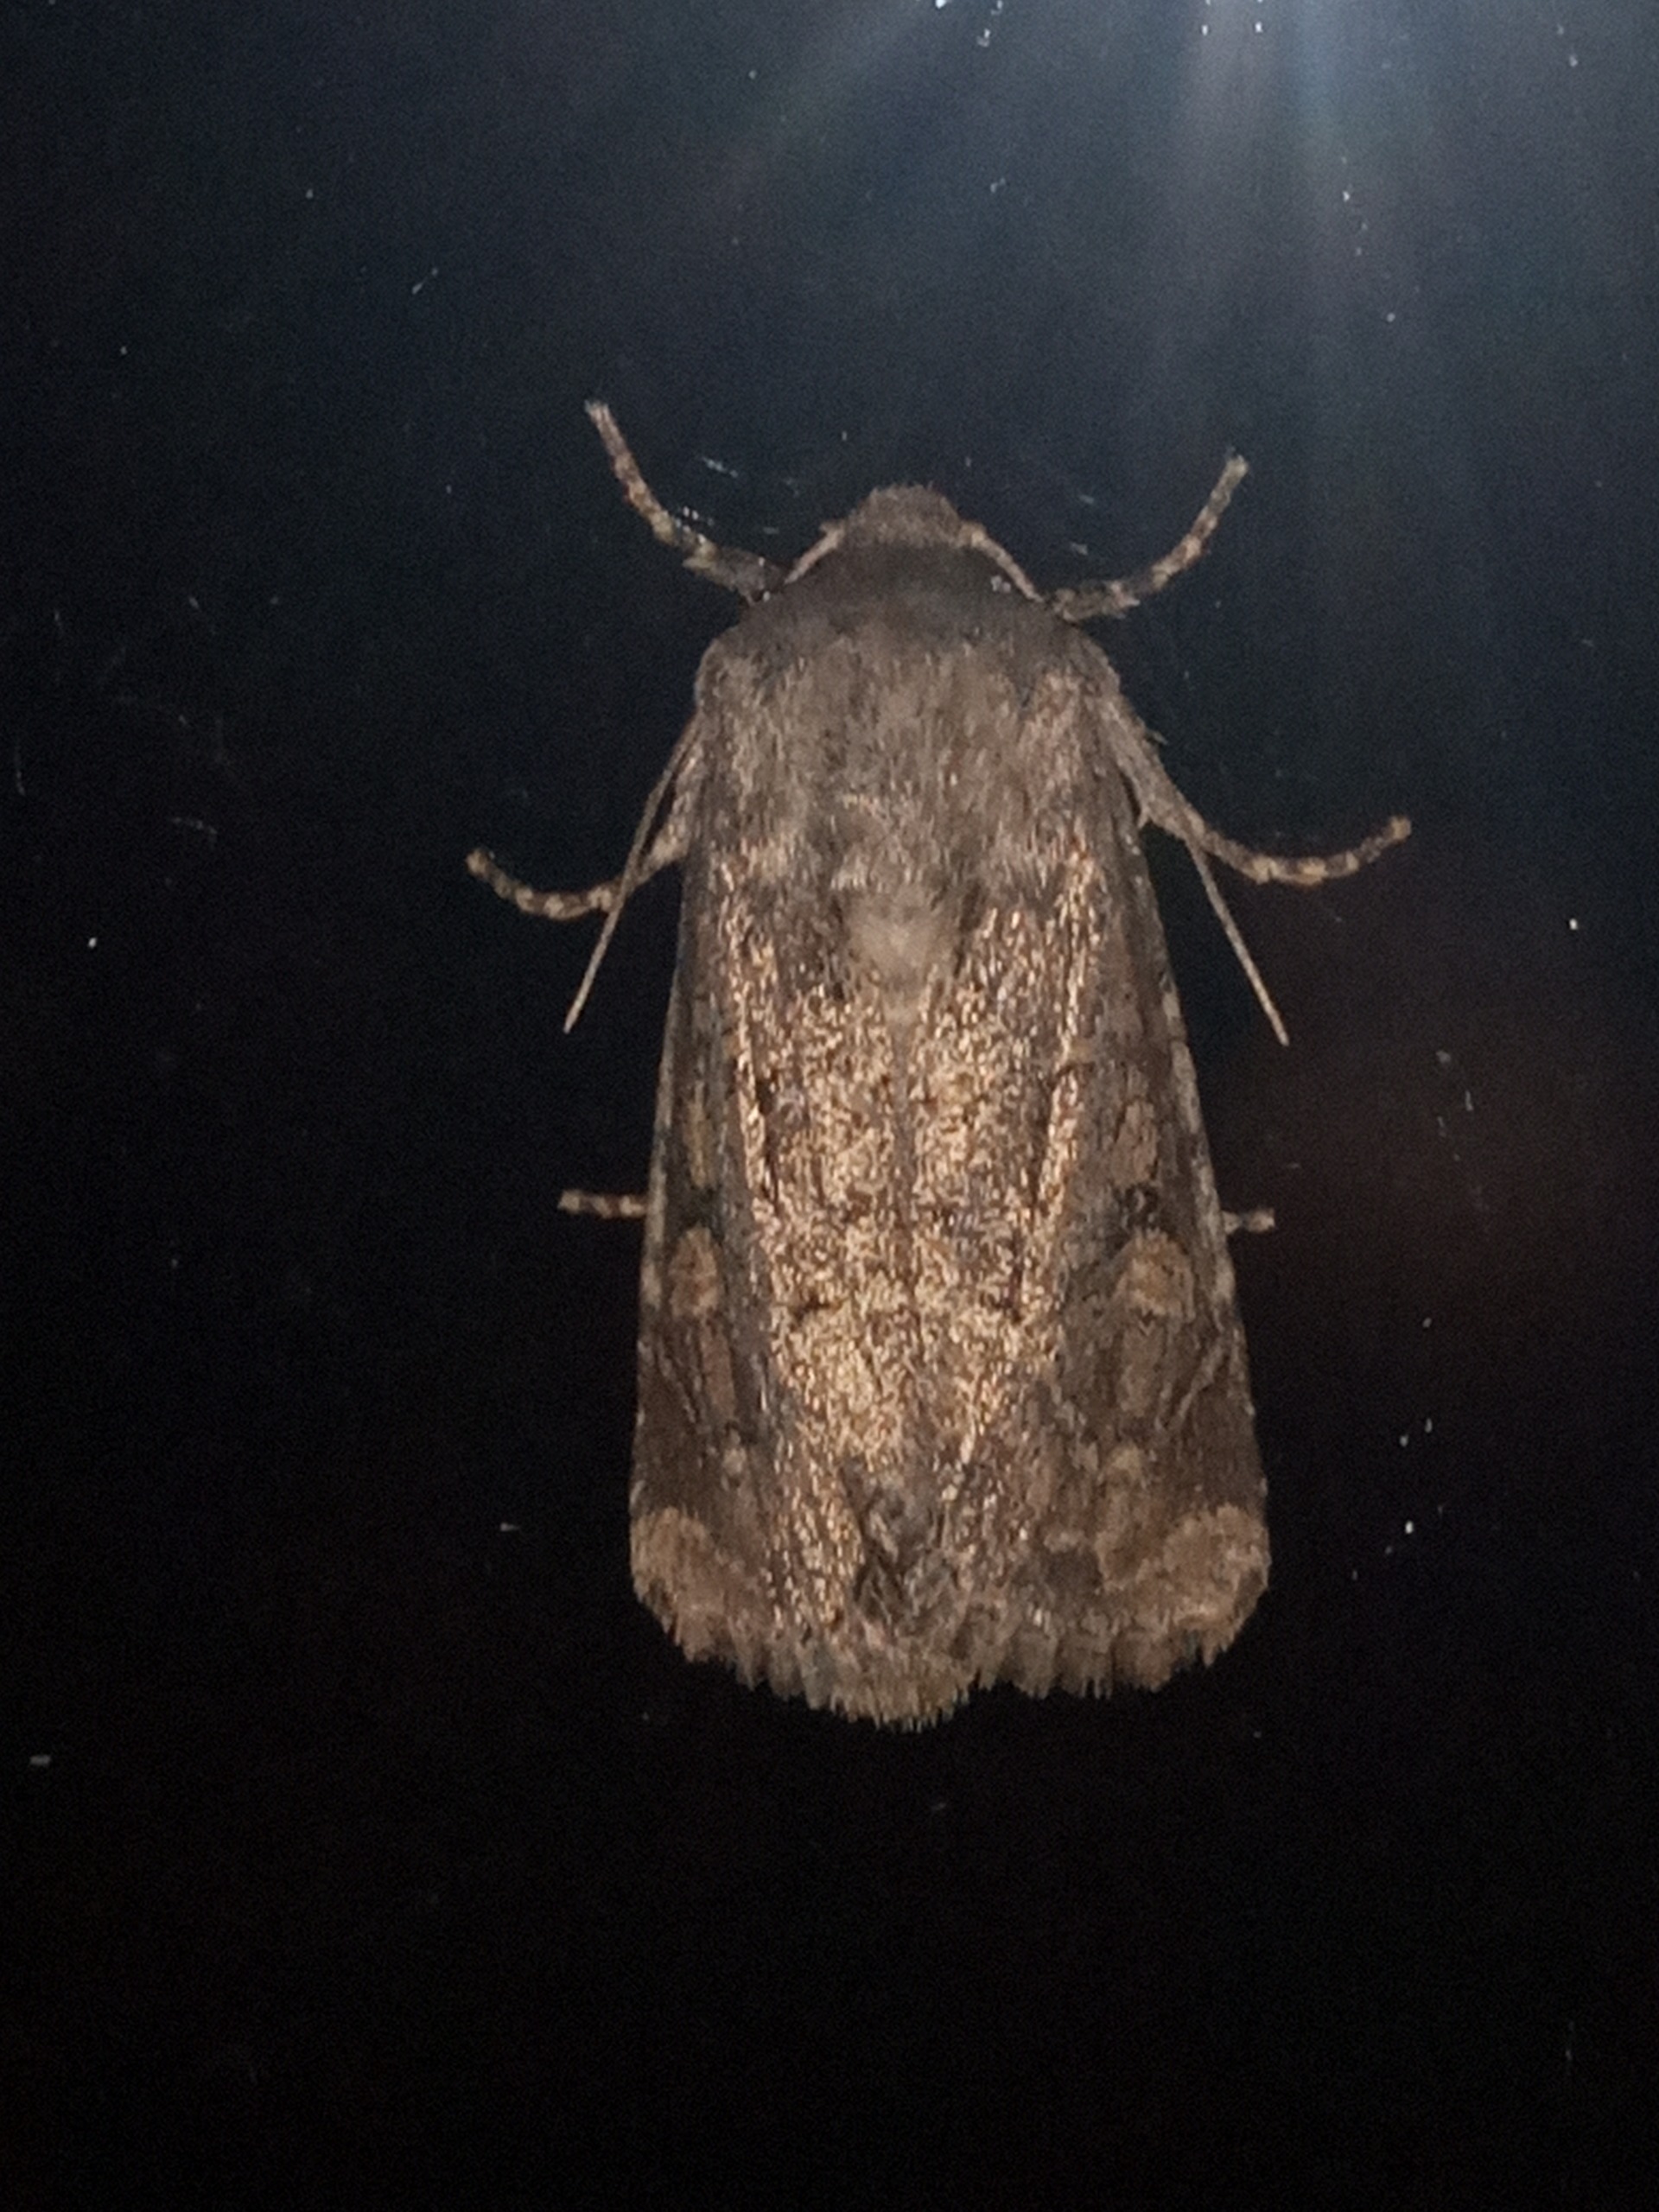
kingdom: Animalia
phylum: Arthropoda
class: Insecta
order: Lepidoptera
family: Noctuidae
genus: Luperina
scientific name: Luperina testacea
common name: Frøgræsugle
